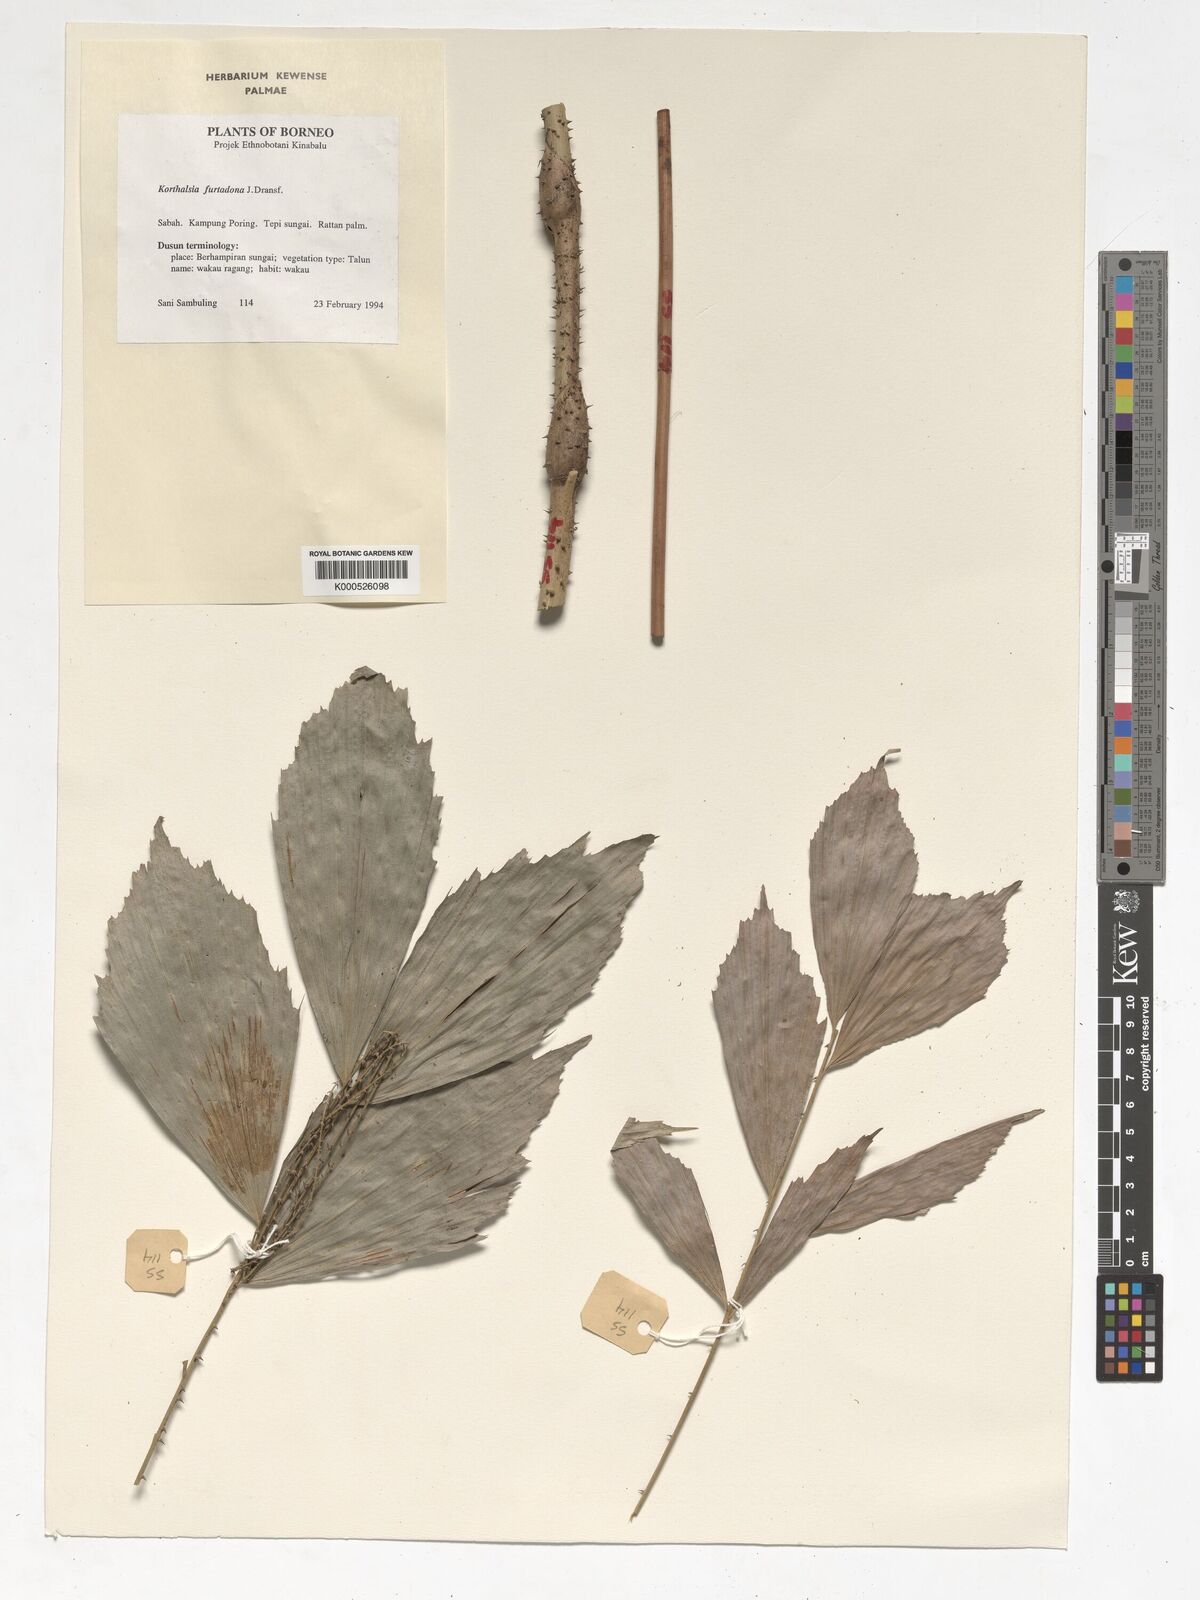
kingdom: Plantae
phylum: Tracheophyta
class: Liliopsida
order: Arecales
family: Arecaceae
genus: Korthalsia
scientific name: Korthalsia furtadoana
